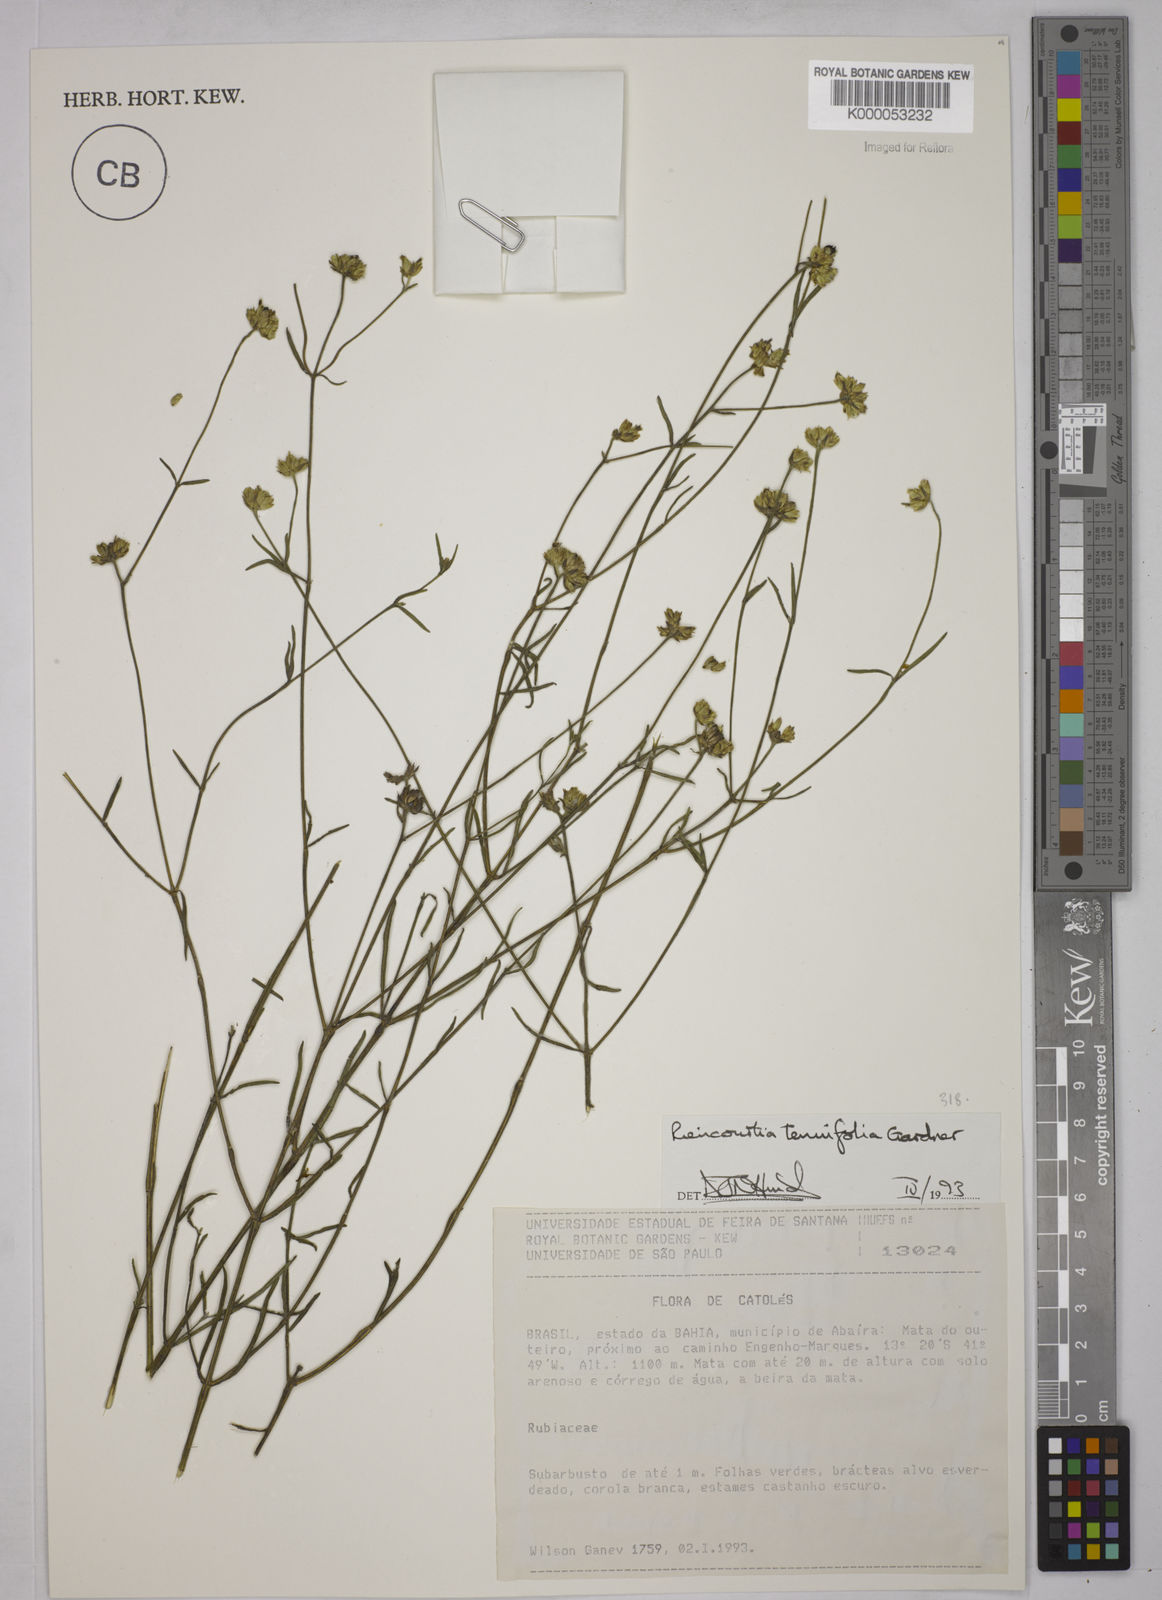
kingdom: Plantae
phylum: Tracheophyta
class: Magnoliopsida
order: Asterales
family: Asteraceae
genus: Riencourtia
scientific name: Riencourtia tenuifolia
